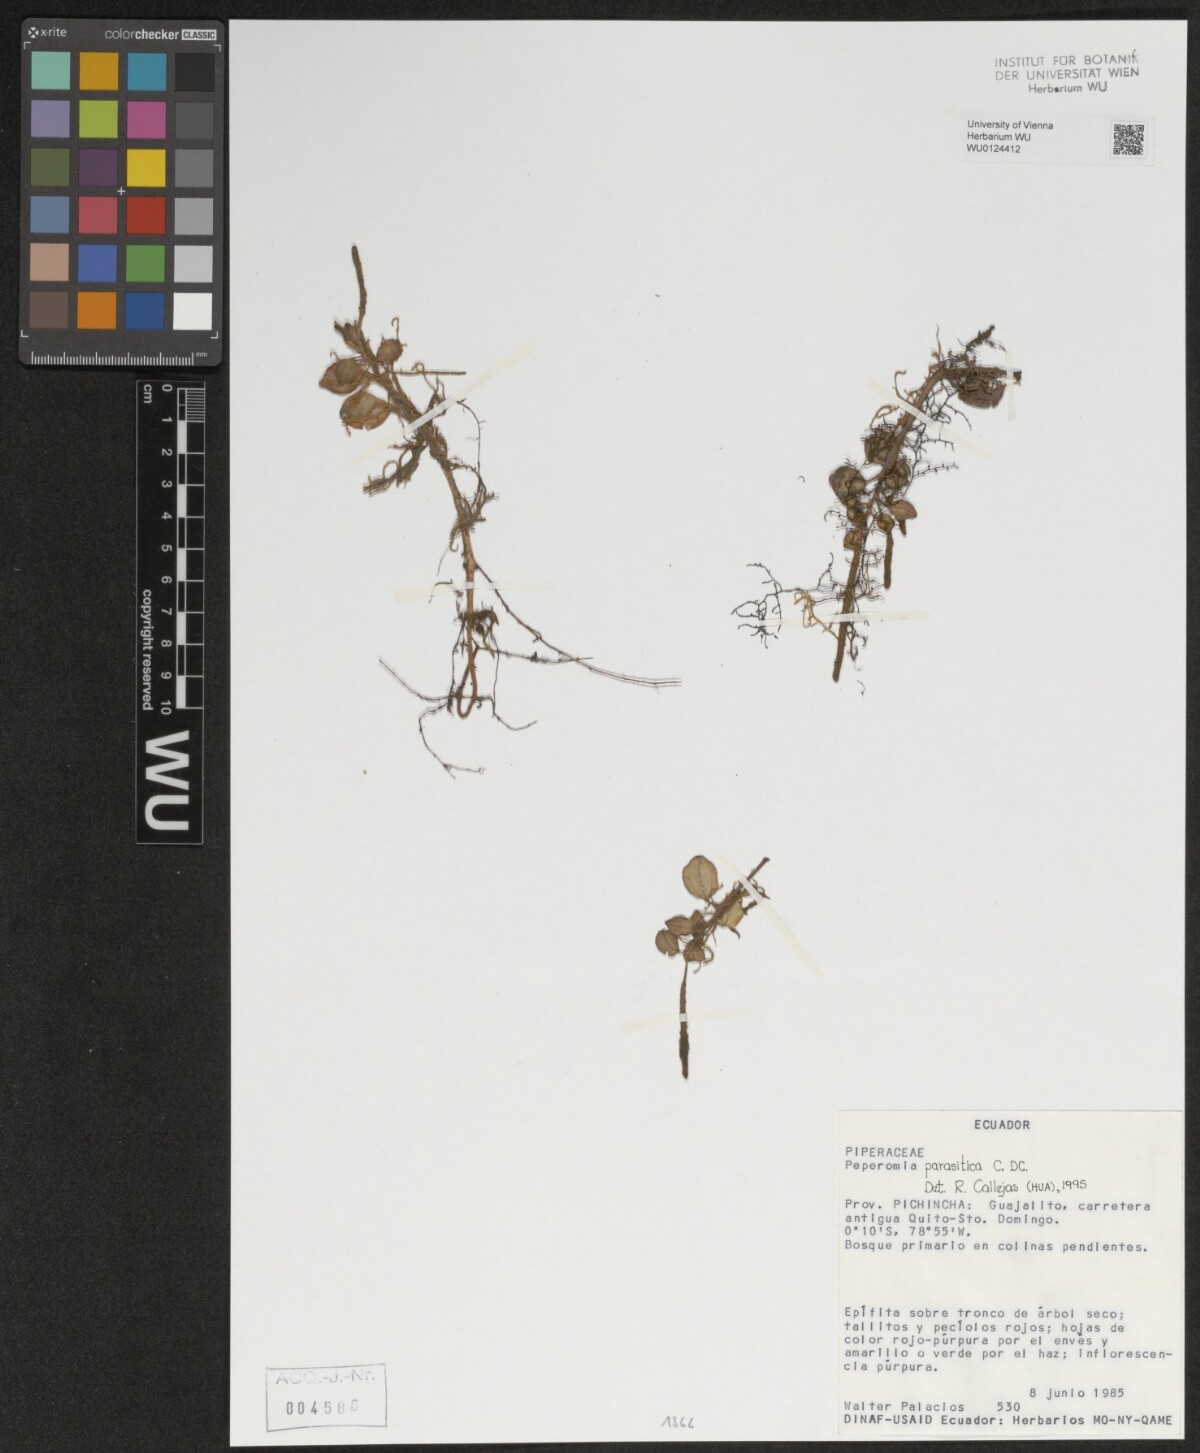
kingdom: Plantae
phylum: Tracheophyta
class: Magnoliopsida
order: Piperales
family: Piperaceae
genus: Peperomia
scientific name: Peperomia parasitica
